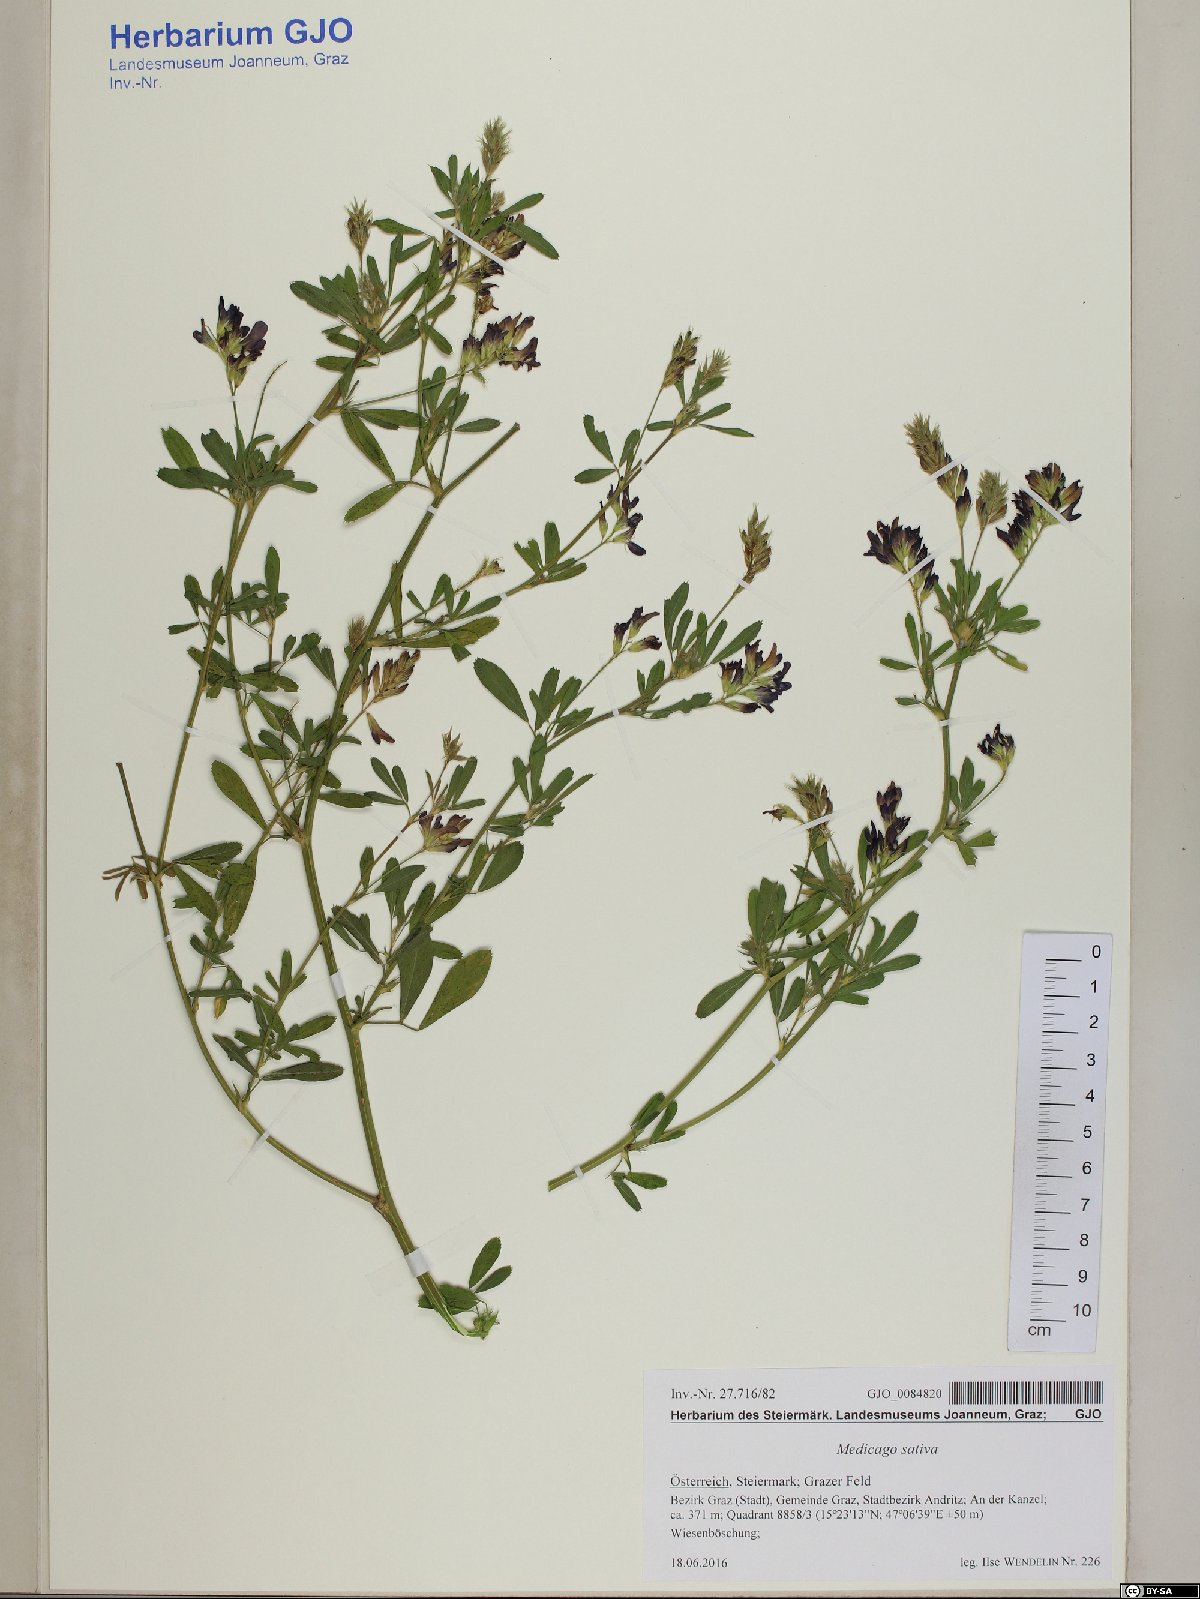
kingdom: Plantae
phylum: Tracheophyta
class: Magnoliopsida
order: Fabales
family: Fabaceae
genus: Medicago
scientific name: Medicago sativa
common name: Alfalfa
